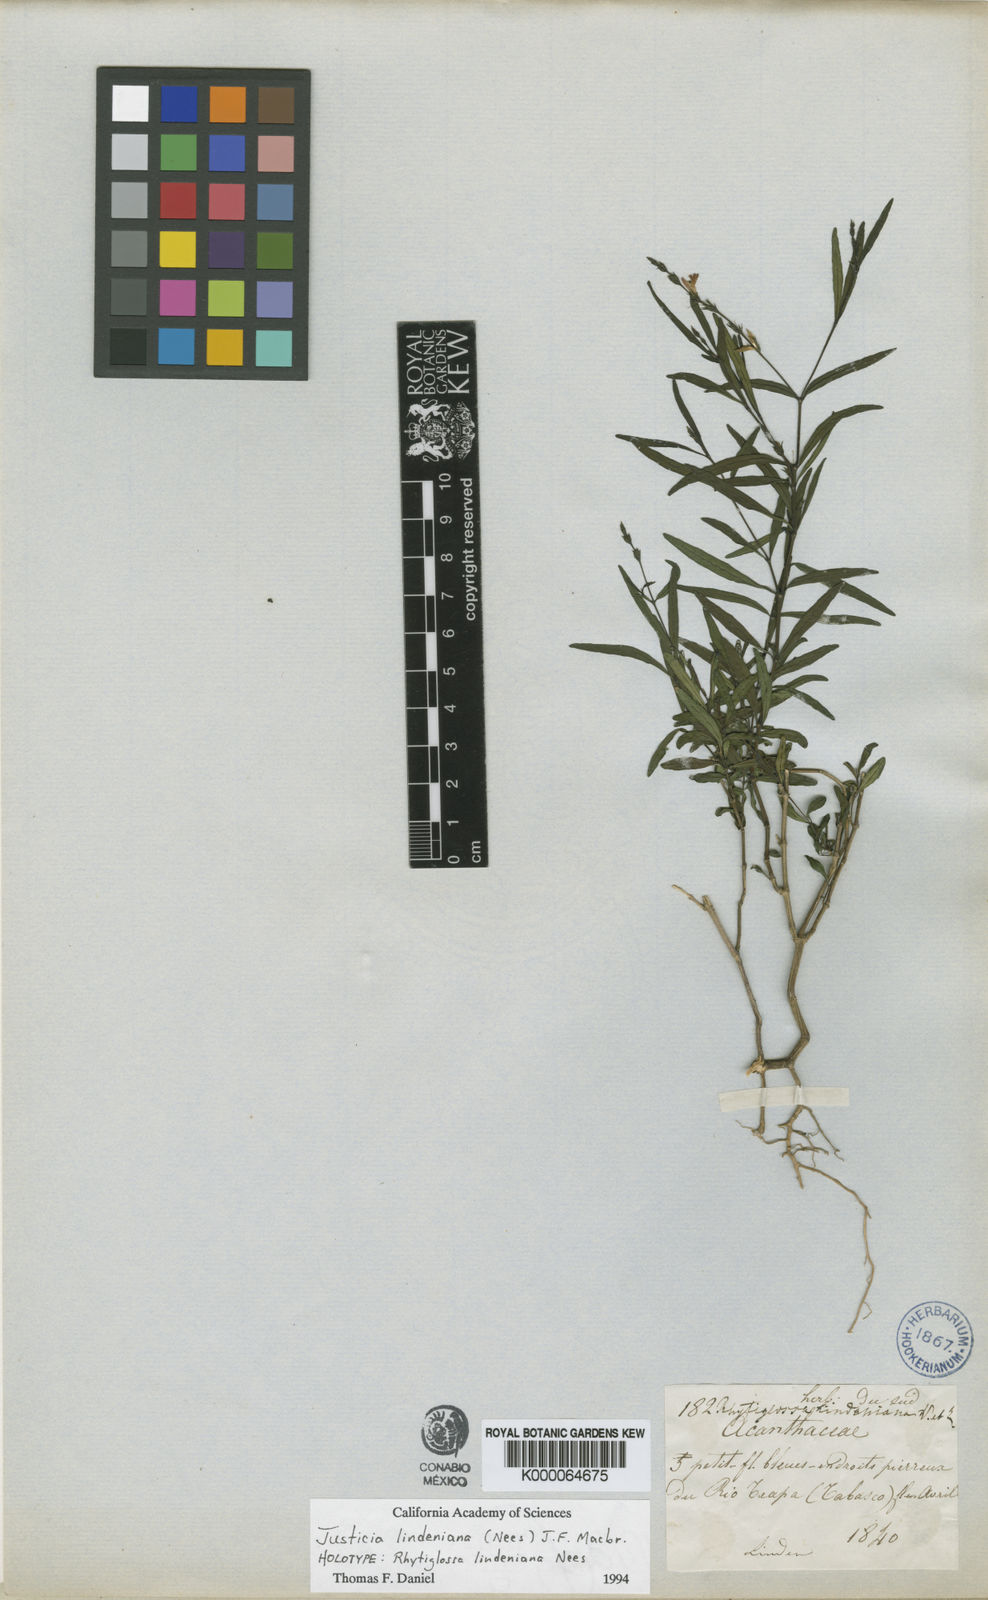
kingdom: Plantae
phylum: Tracheophyta
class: Magnoliopsida
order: Lamiales
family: Acanthaceae
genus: Dianthera
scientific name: Dianthera lindeniana
